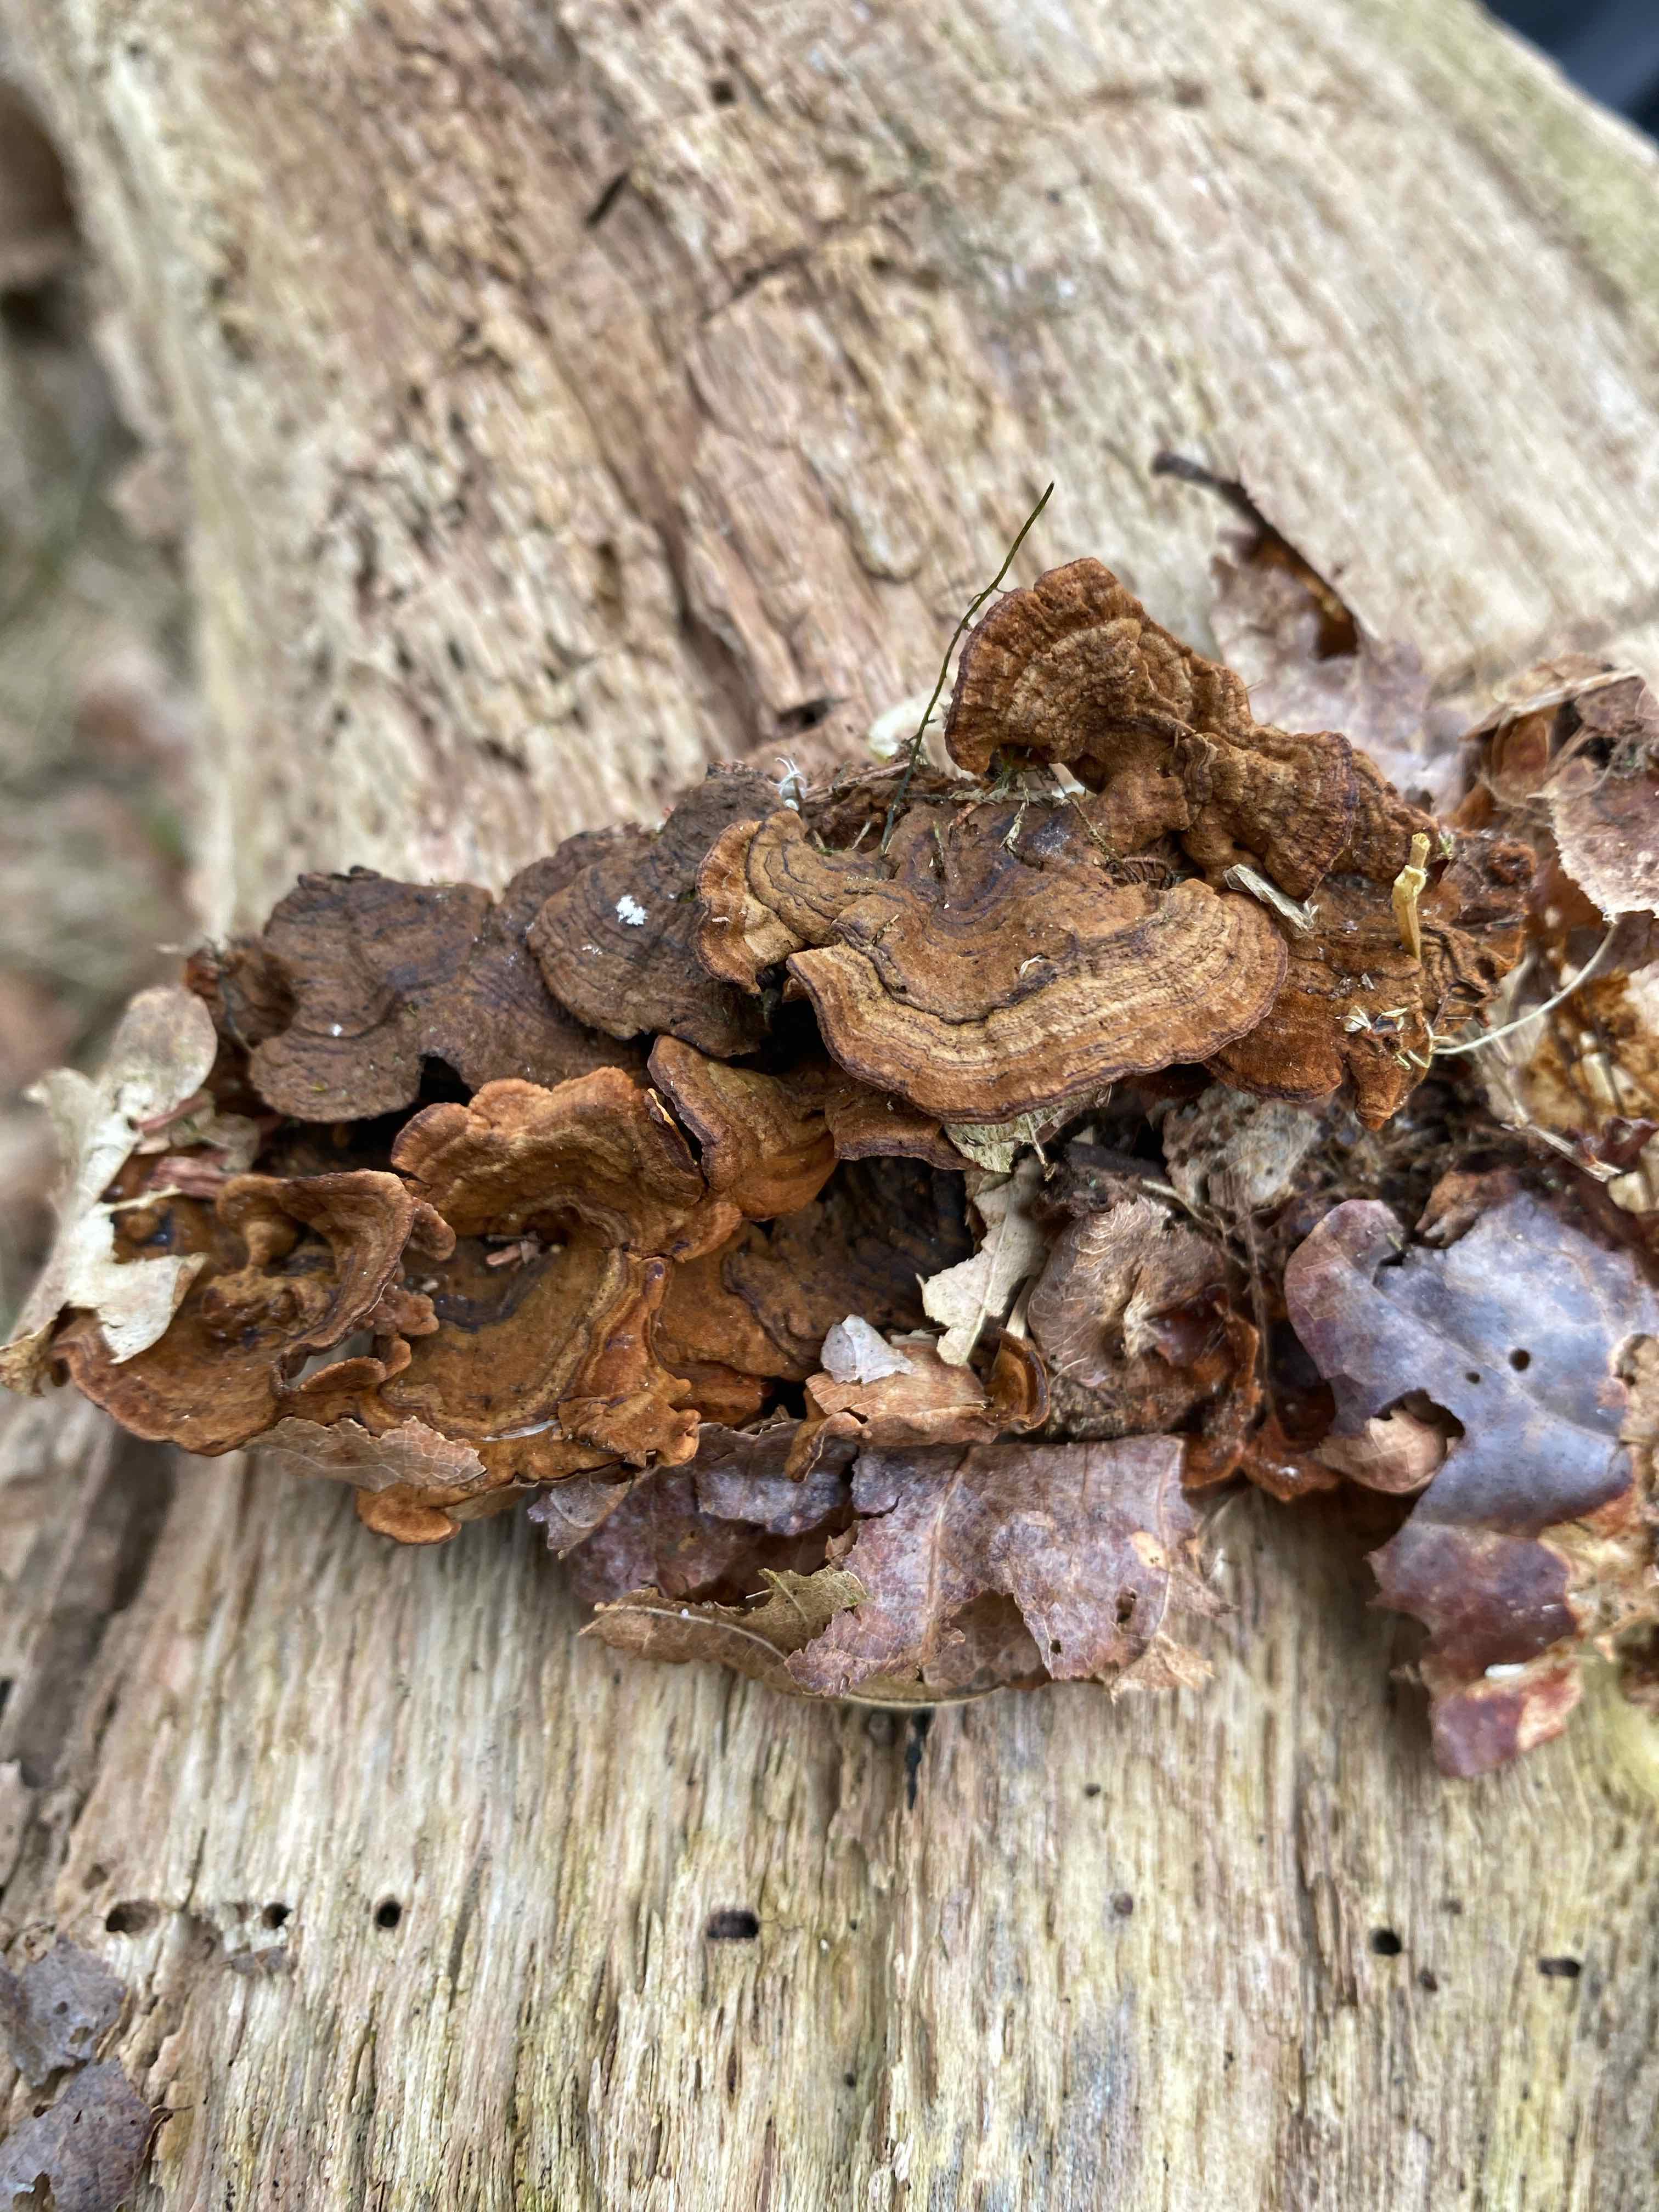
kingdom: Fungi
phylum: Basidiomycota
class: Agaricomycetes
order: Hymenochaetales
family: Hymenochaetaceae
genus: Hymenochaete
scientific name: Hymenochaete rubiginosa
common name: stiv ruslædersvamp
